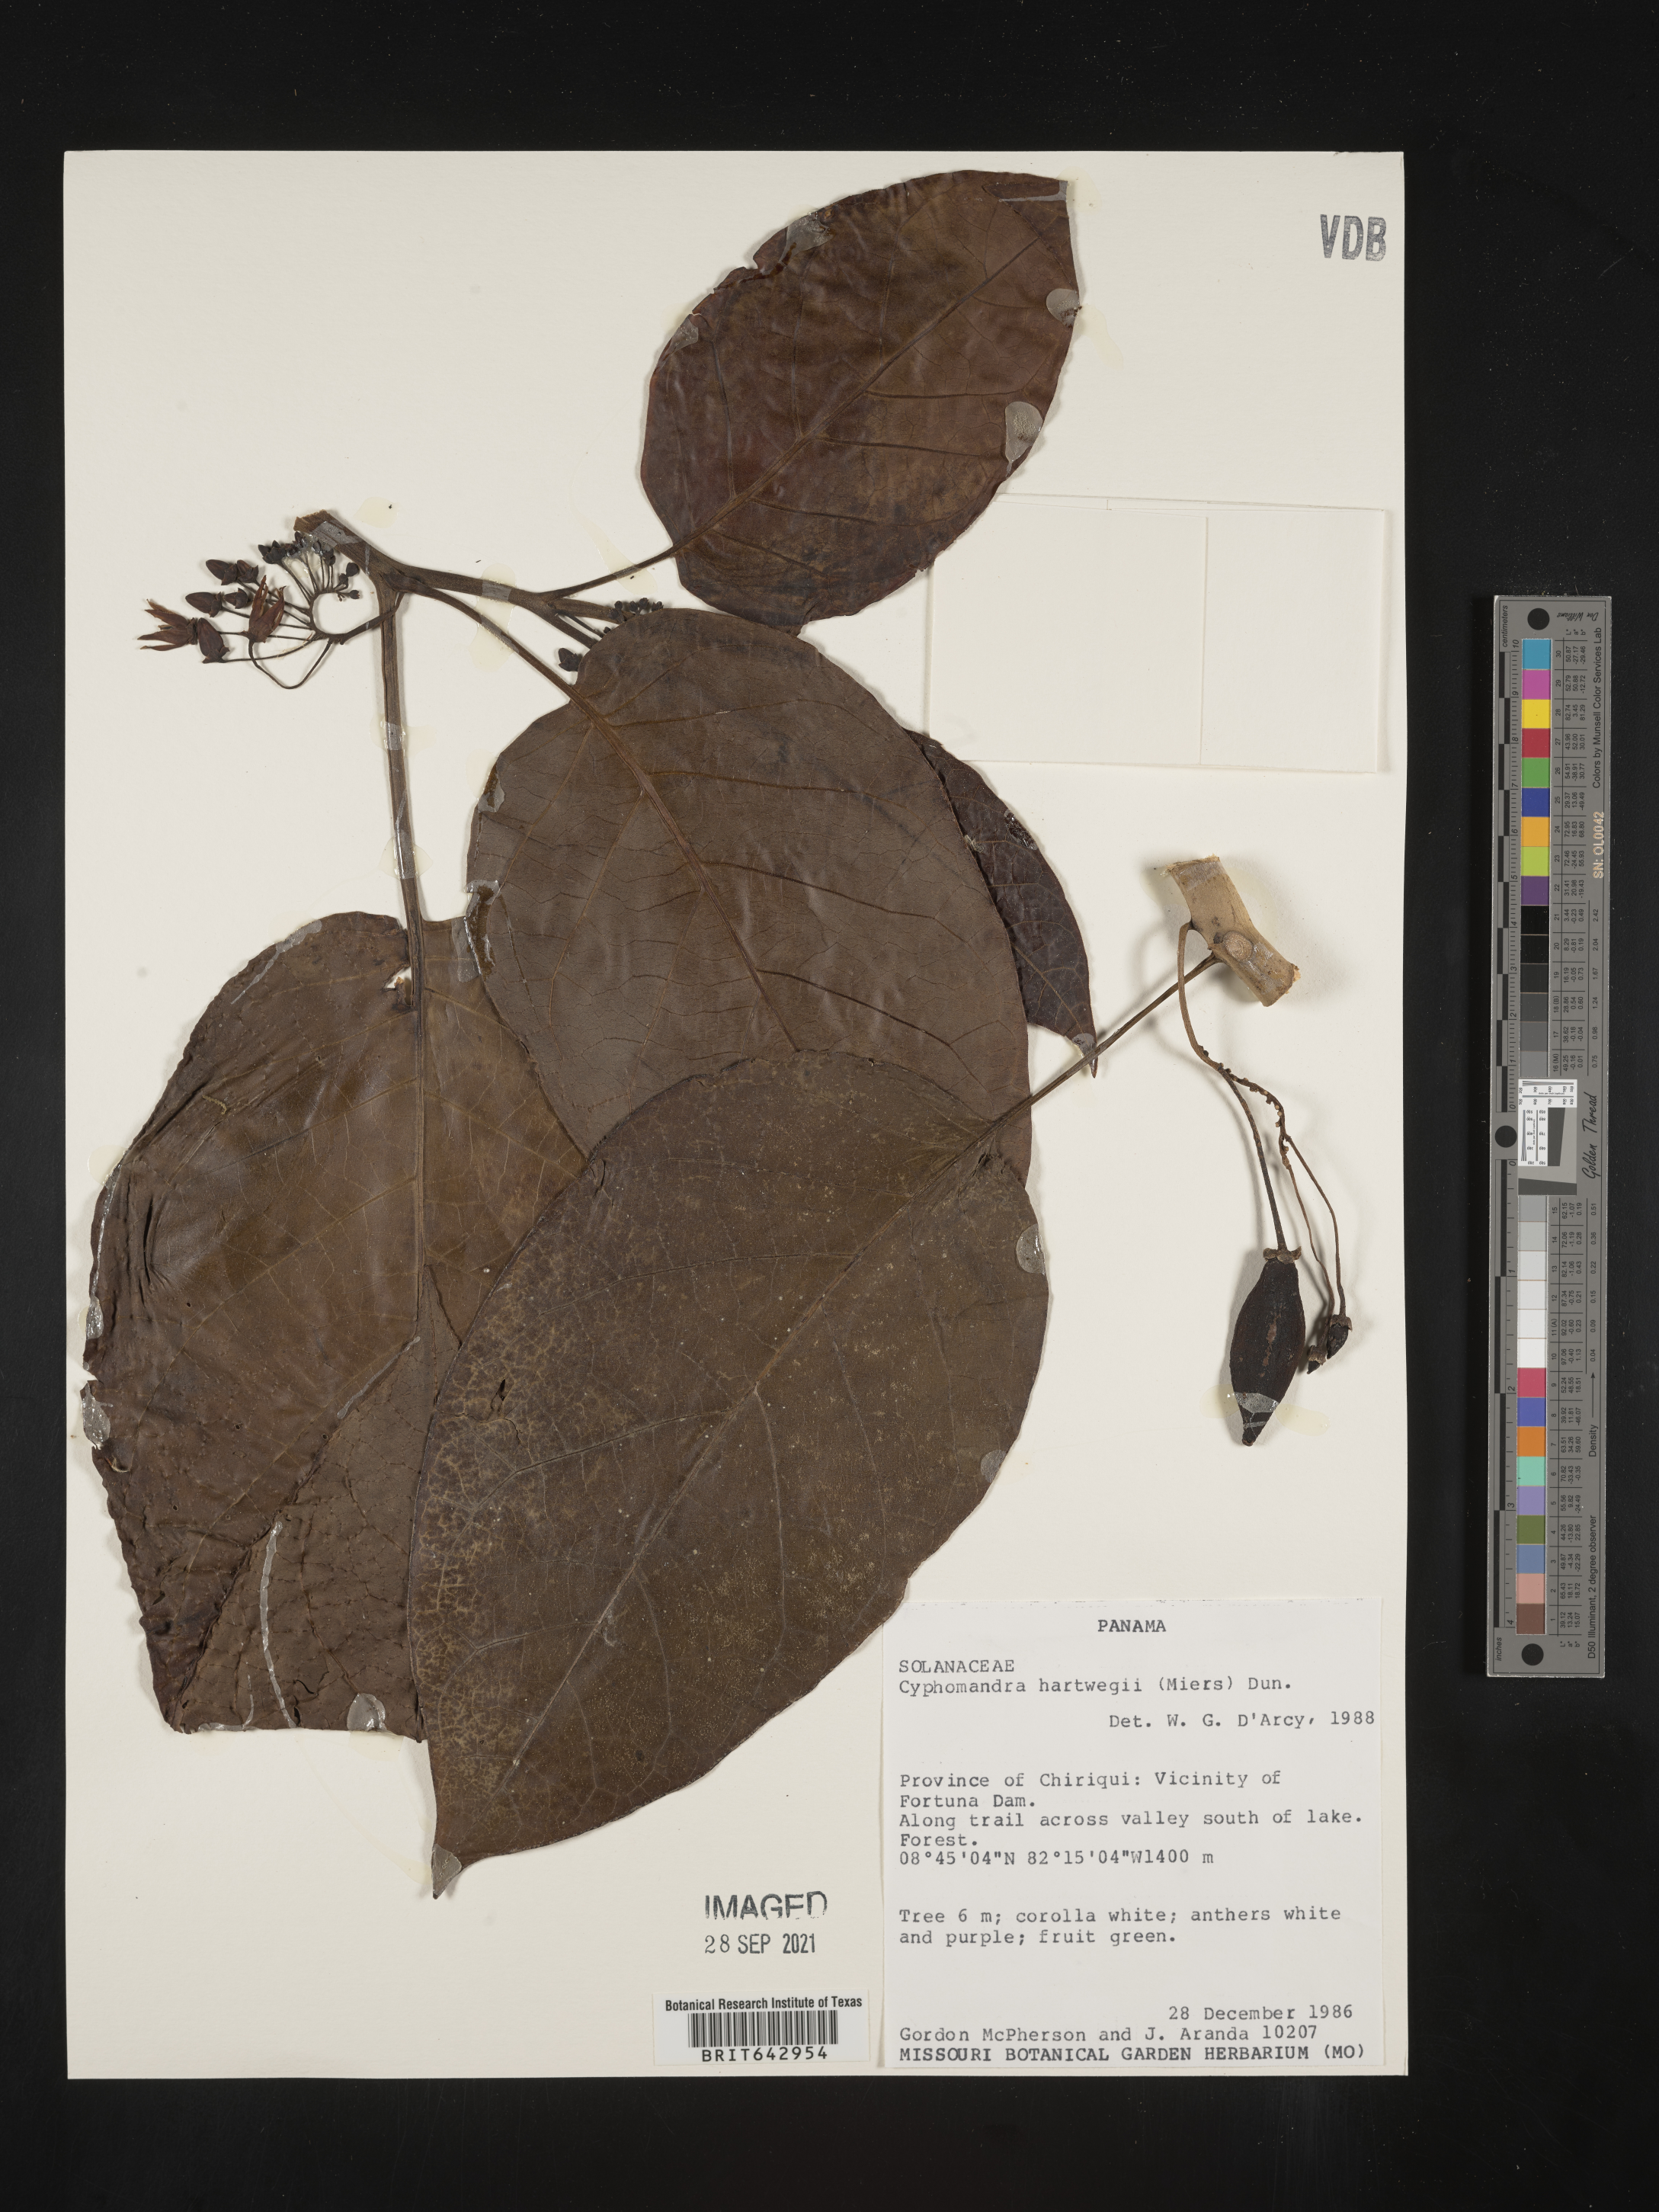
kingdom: Plantae
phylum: Tracheophyta
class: Magnoliopsida
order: Solanales
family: Solanaceae
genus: Solanum
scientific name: Solanum
